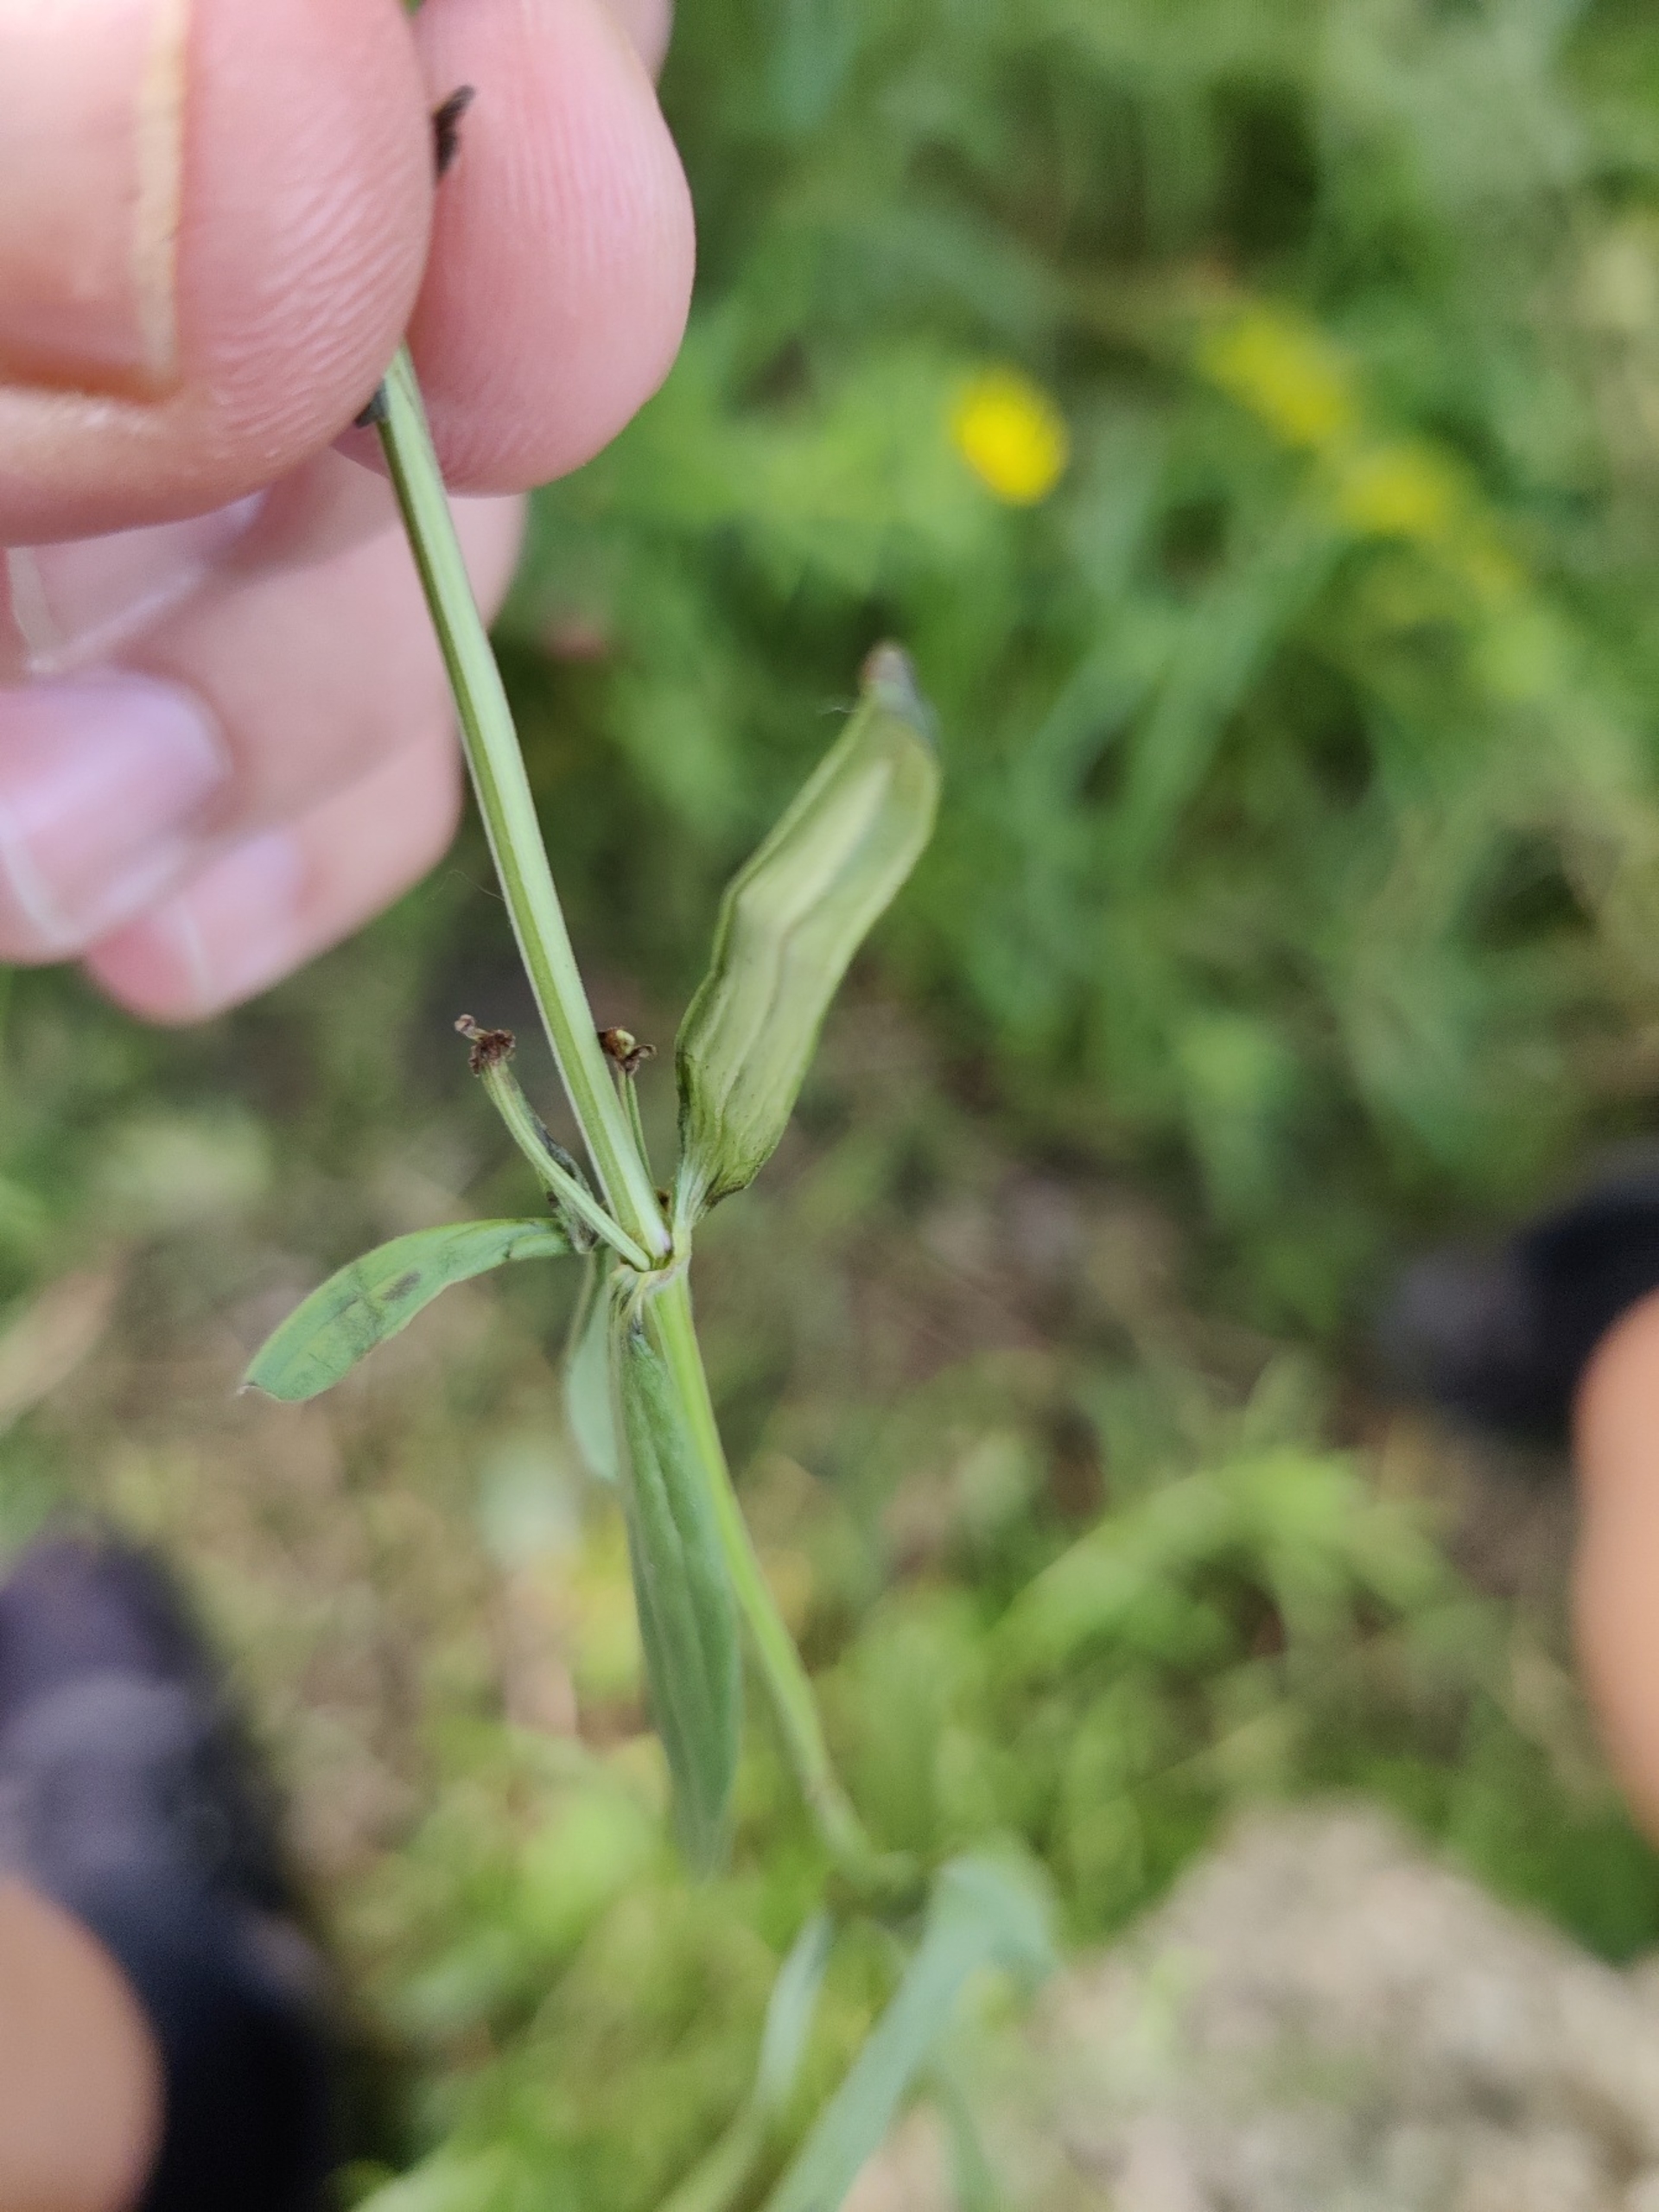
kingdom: Plantae
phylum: Tracheophyta
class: Magnoliopsida
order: Gentianales
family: Rubiaceae
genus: Galium
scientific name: Galium boreale
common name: Trenervet snerre
